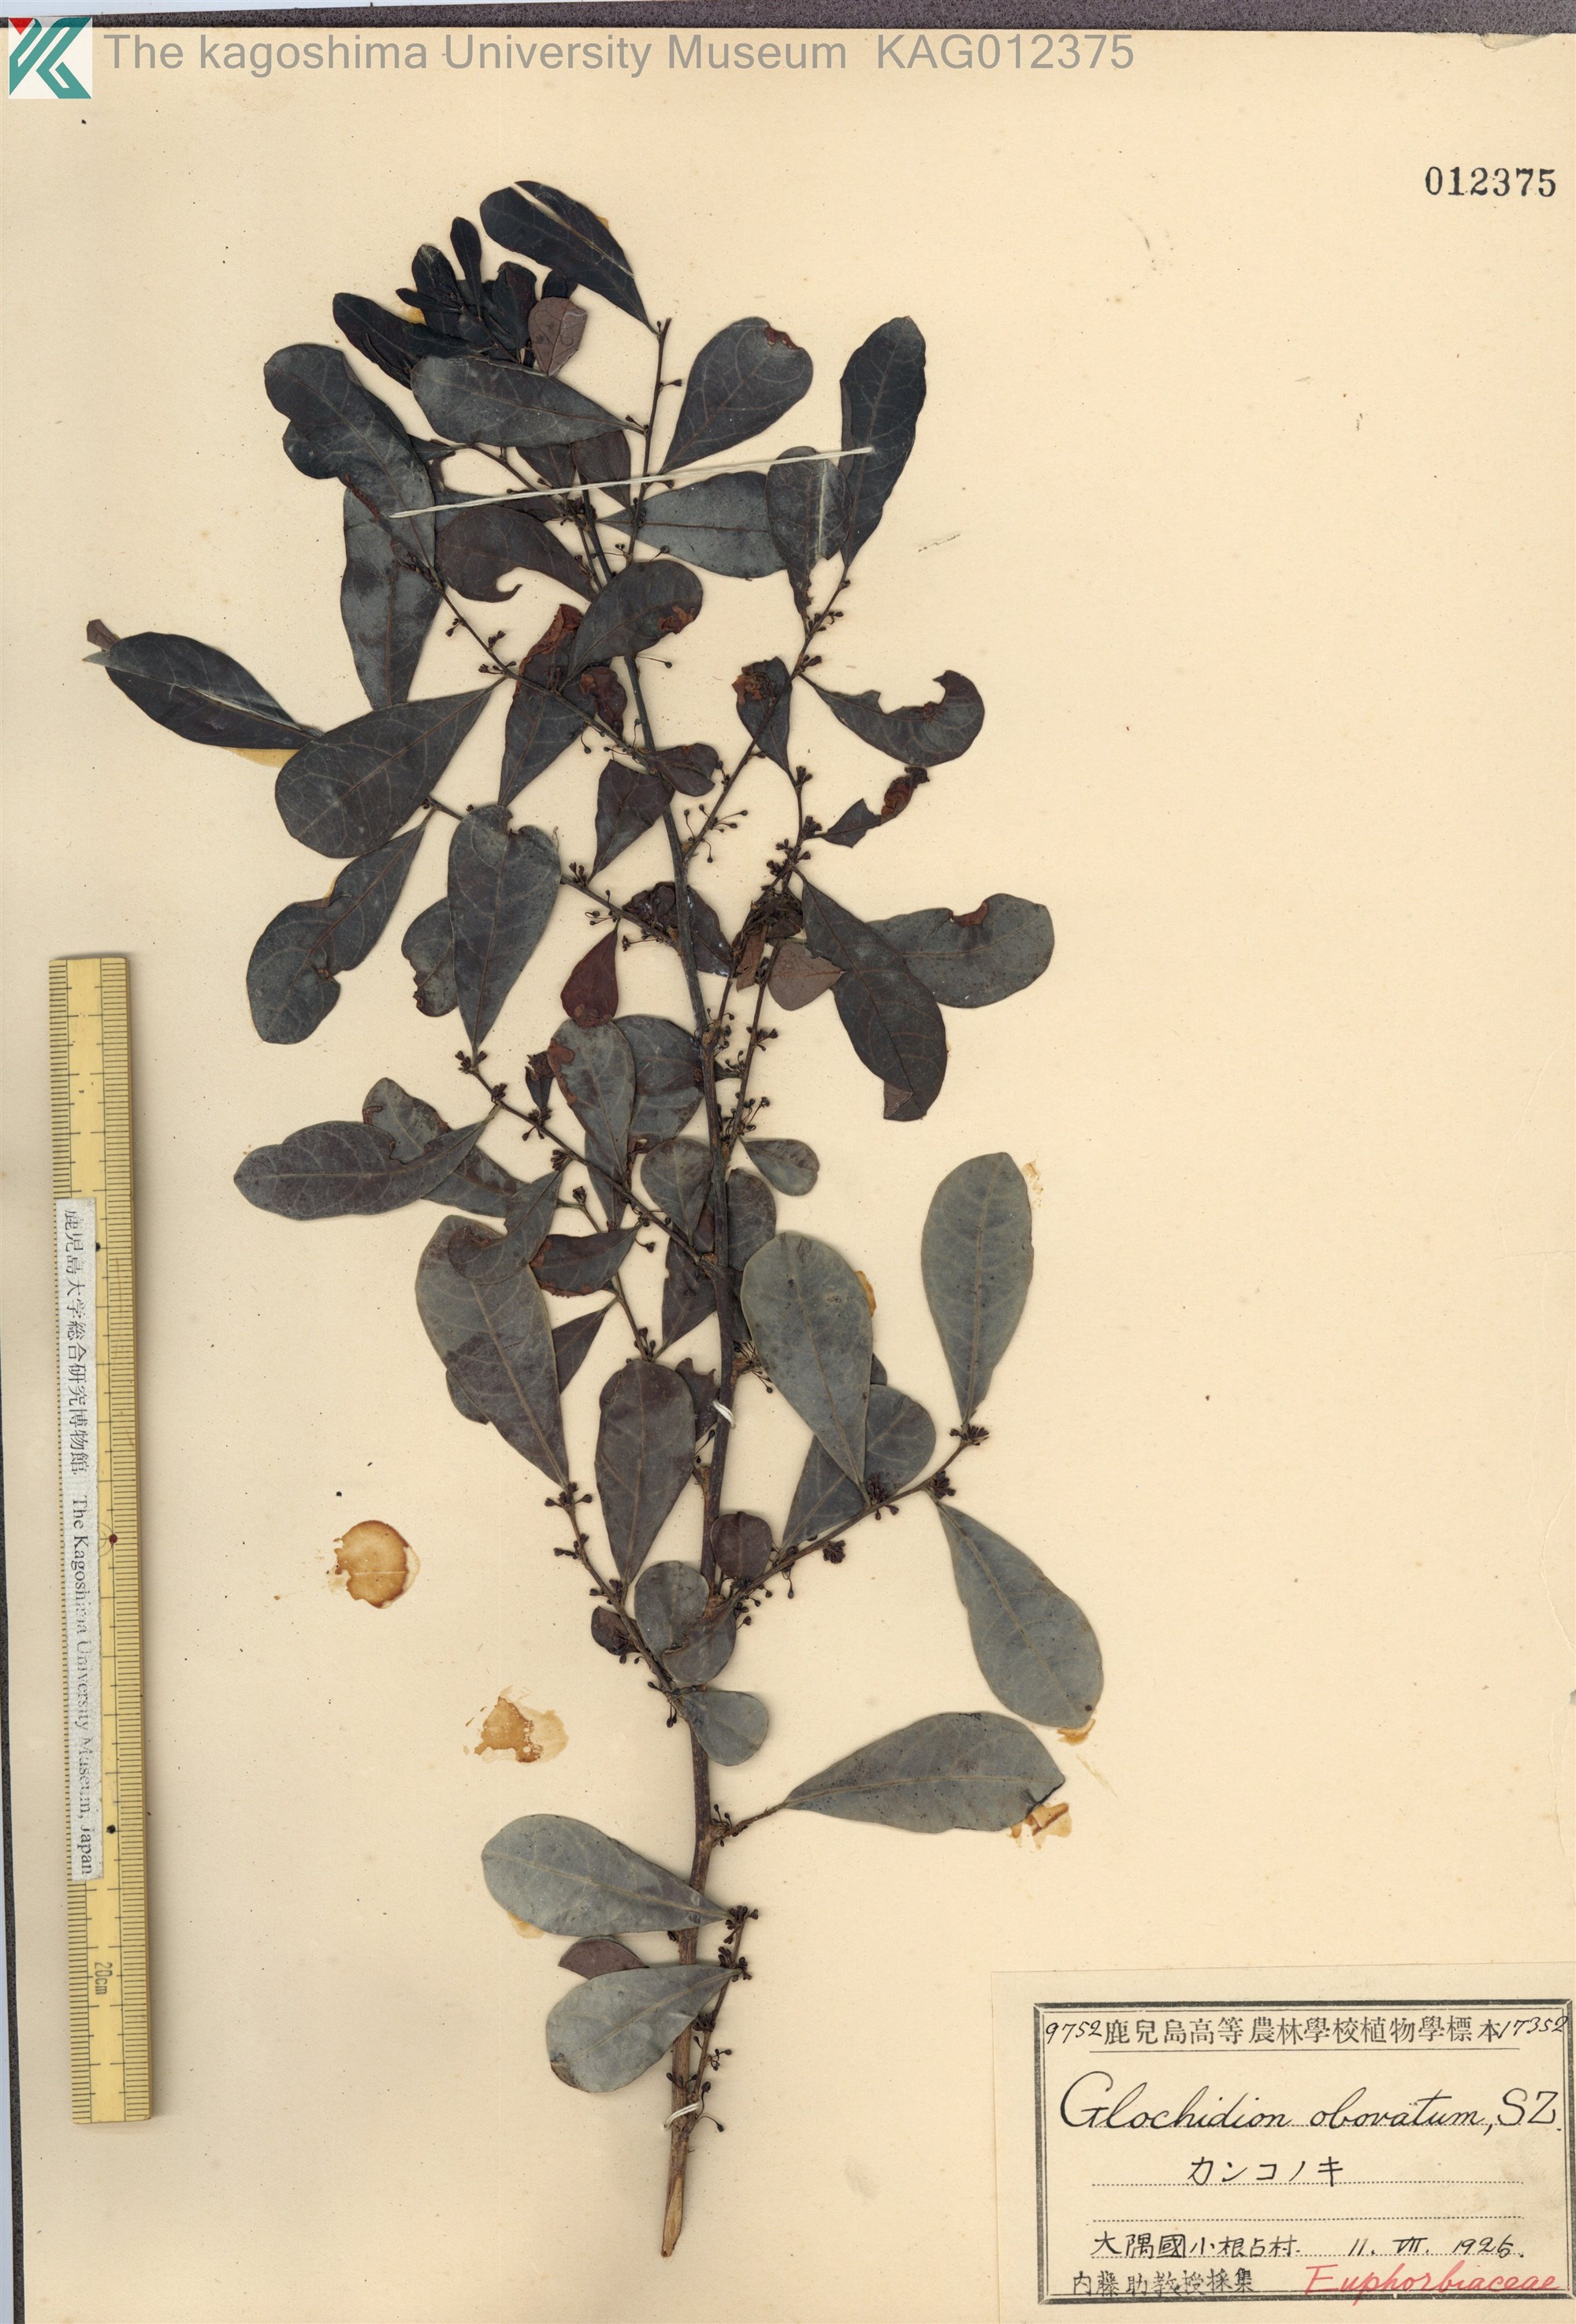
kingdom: Plantae
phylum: Tracheophyta
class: Magnoliopsida
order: Malpighiales
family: Phyllanthaceae
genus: Glochidion
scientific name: Glochidion obovatum
